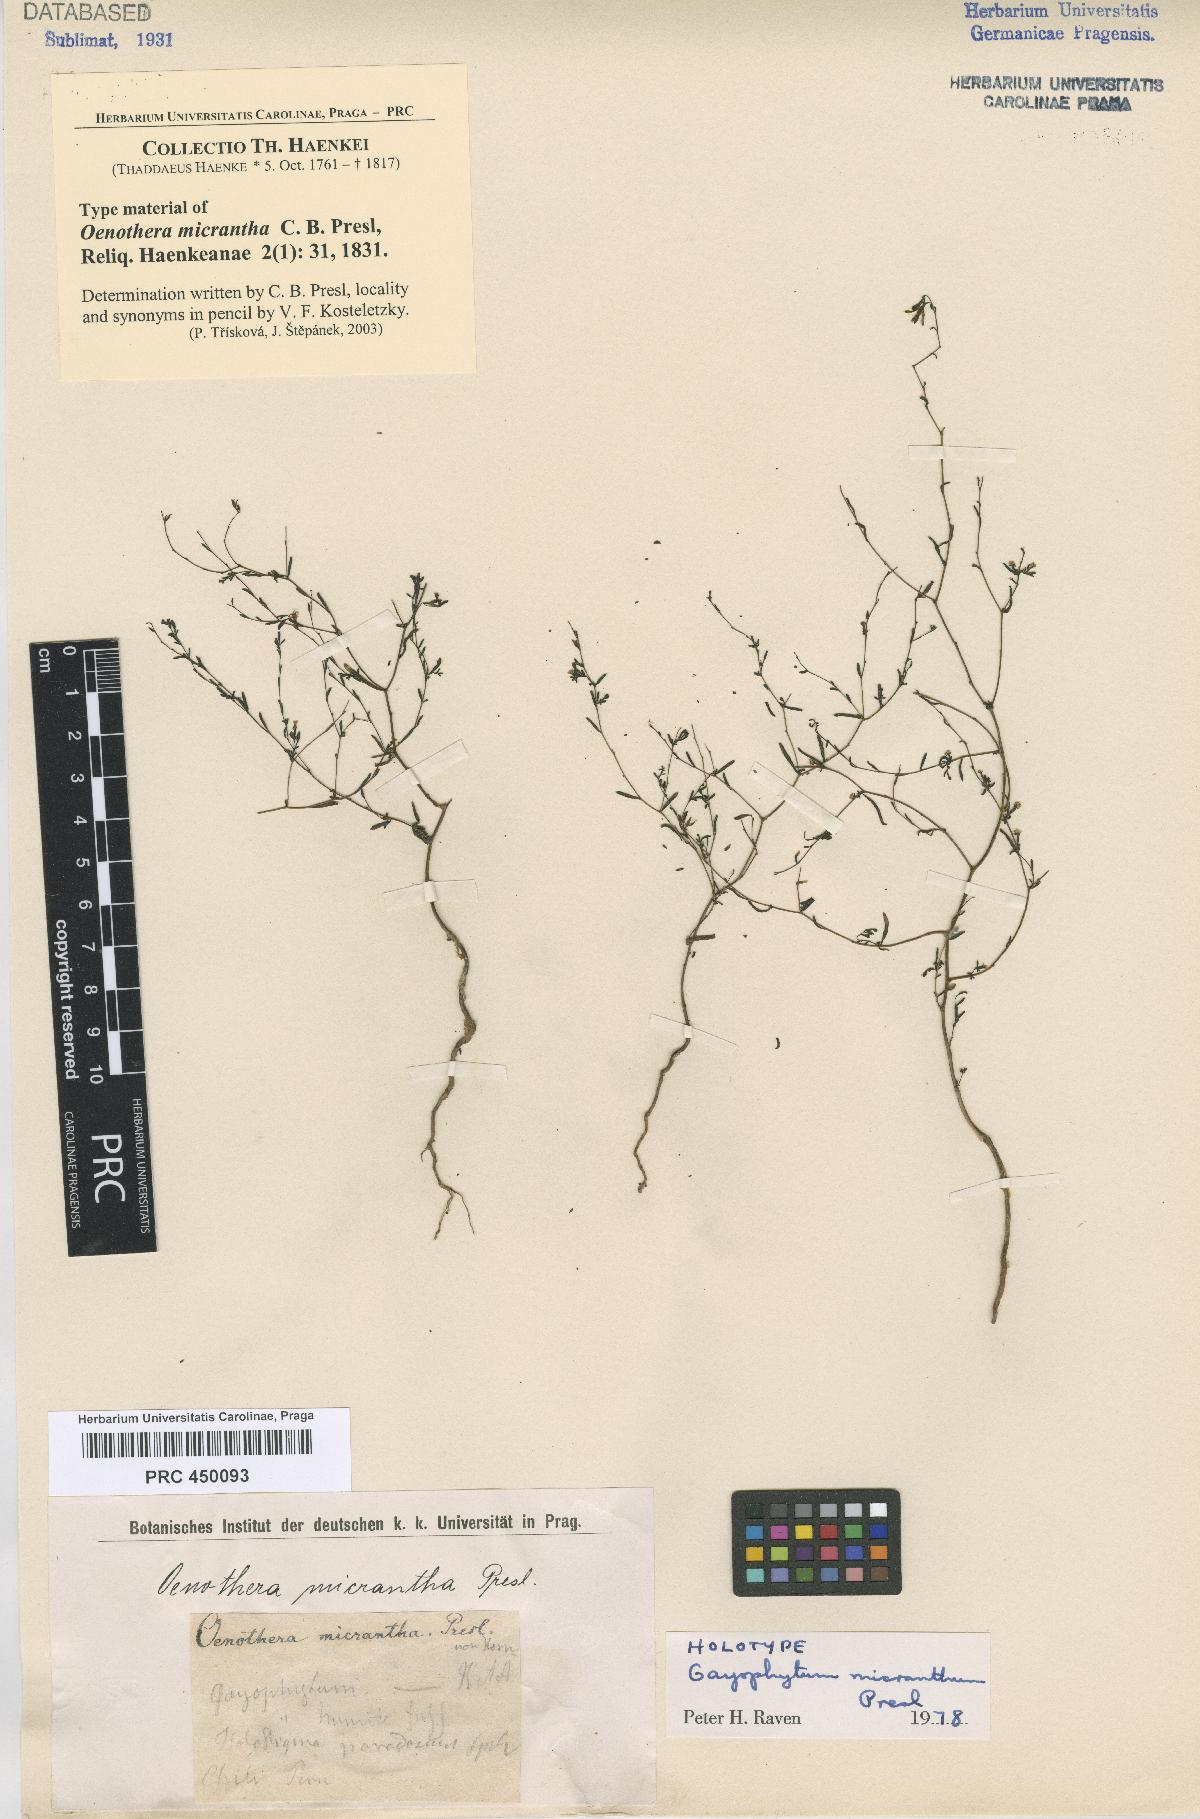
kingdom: Plantae
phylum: Tracheophyta
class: Magnoliopsida
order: Myrtales
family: Onagraceae
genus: Gayophytum
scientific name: Gayophytum micranthum
